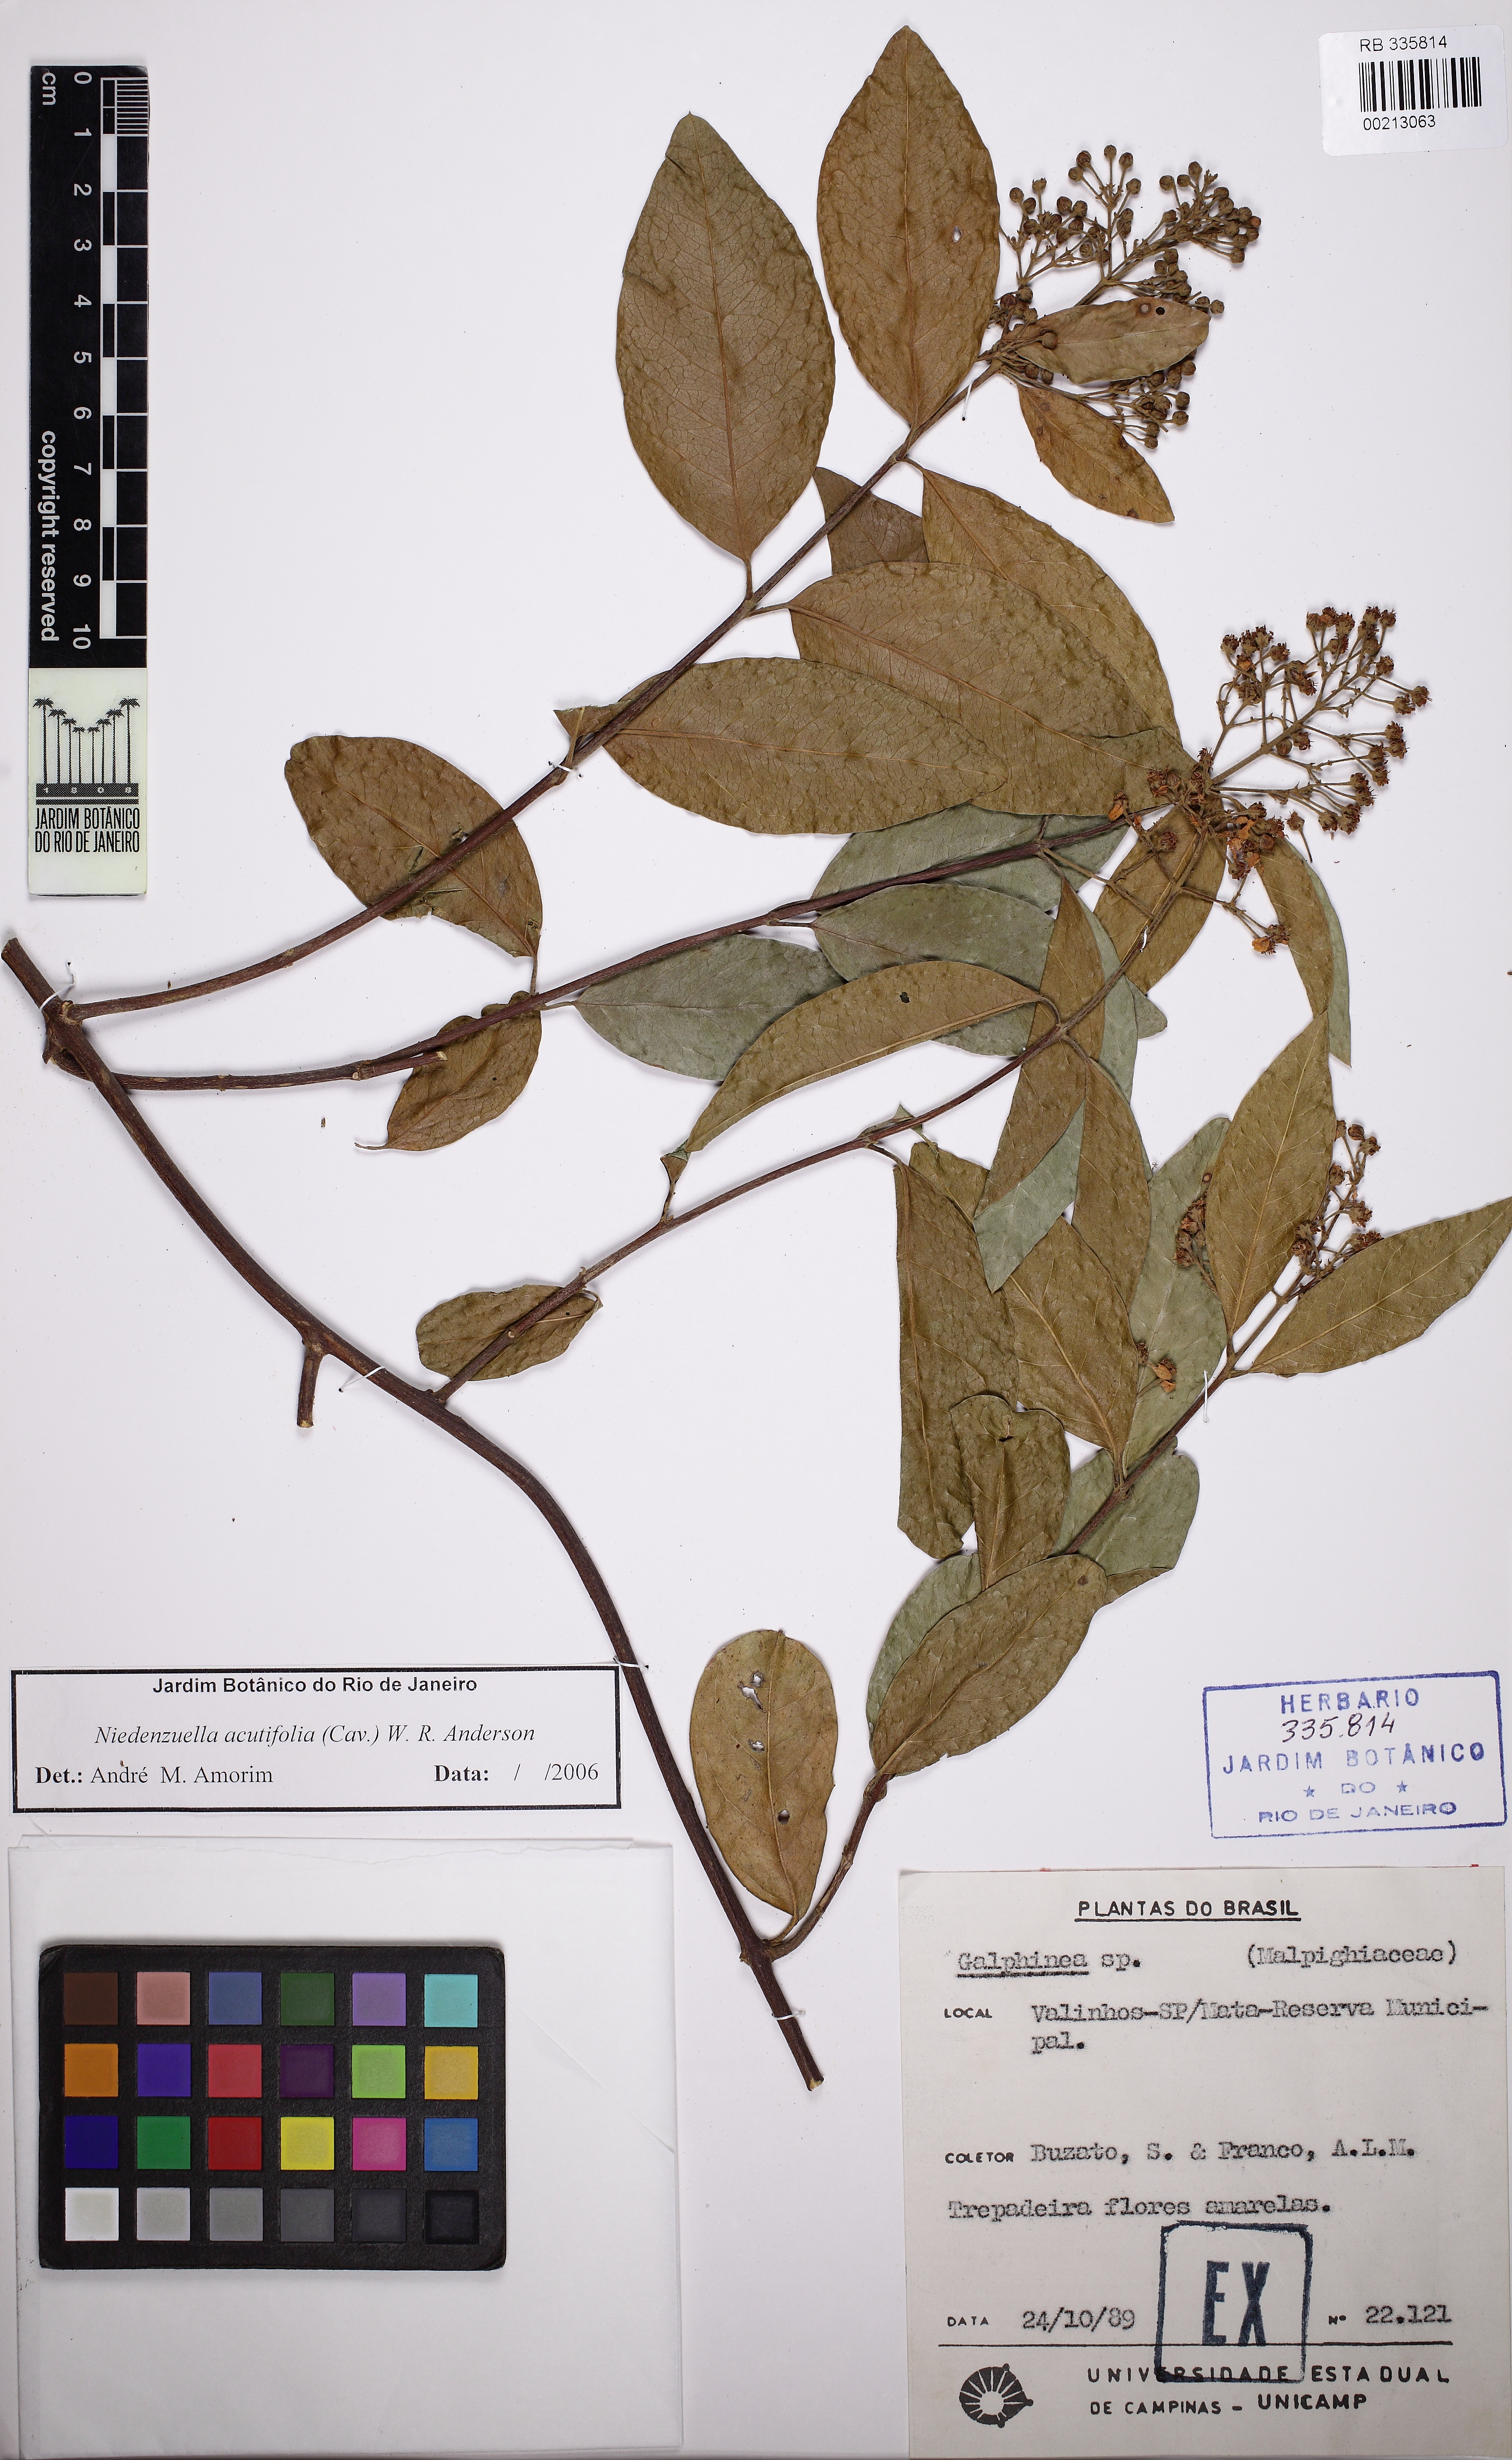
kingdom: Plantae
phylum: Tracheophyta
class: Magnoliopsida
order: Malpighiales
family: Malpighiaceae
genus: Niedenzuella
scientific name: Niedenzuella acutifolia
